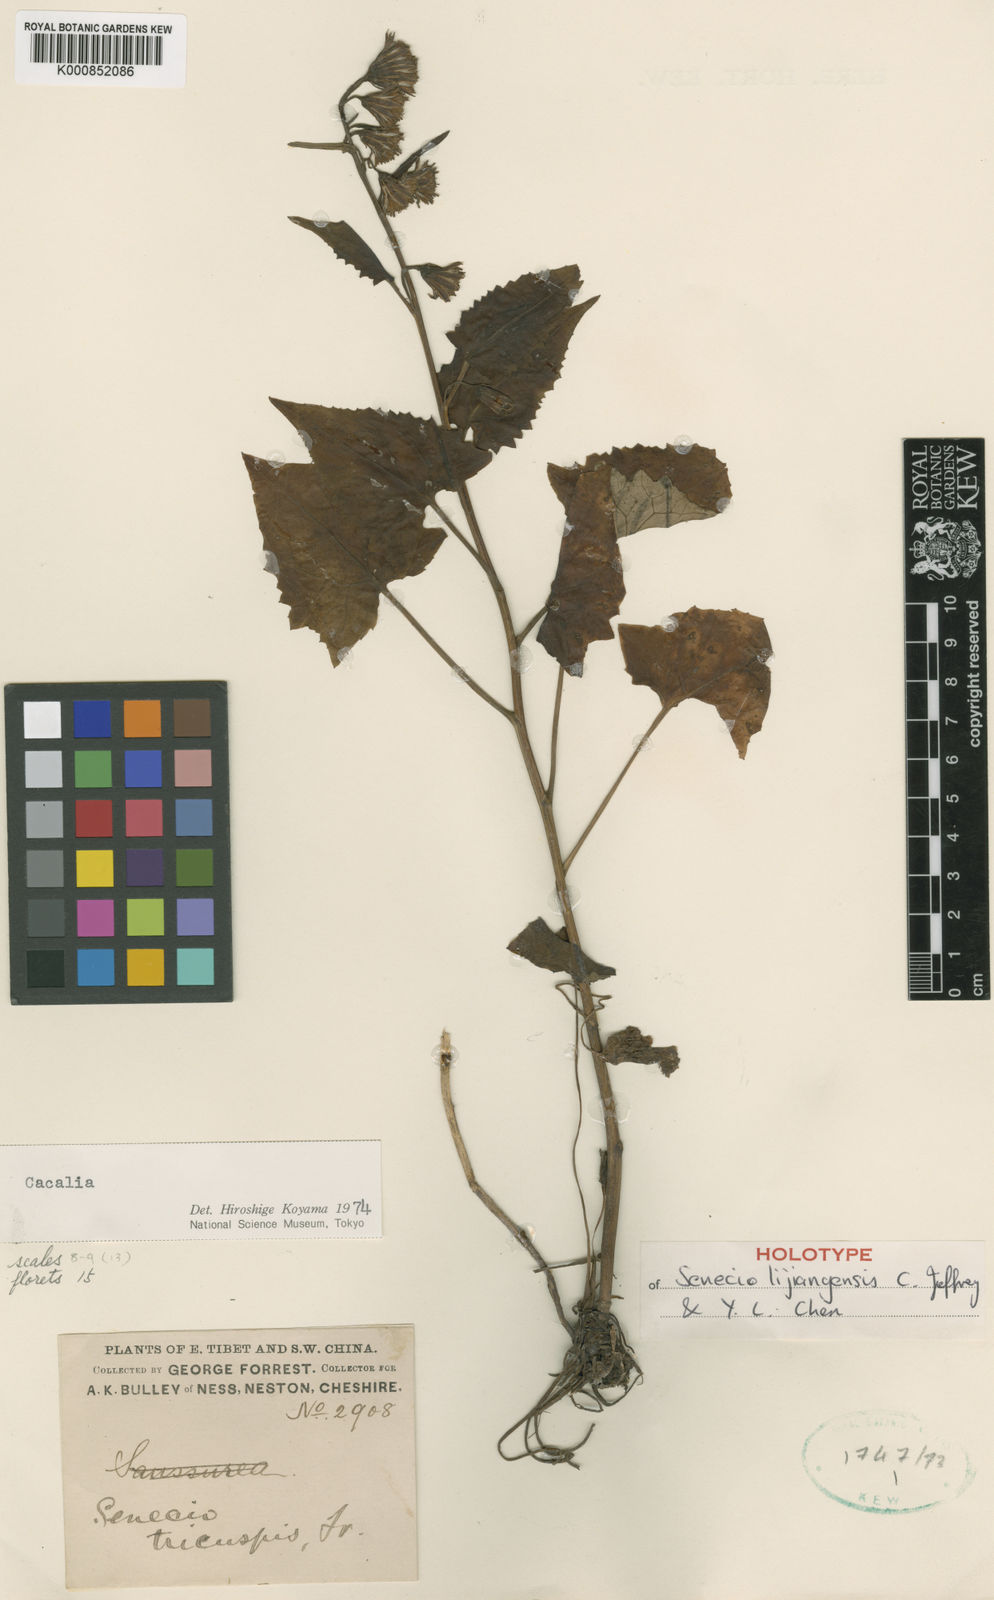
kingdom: Plantae
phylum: Tracheophyta
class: Magnoliopsida
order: Asterales
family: Asteraceae
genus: Senecio
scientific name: Senecio lijiangensis
